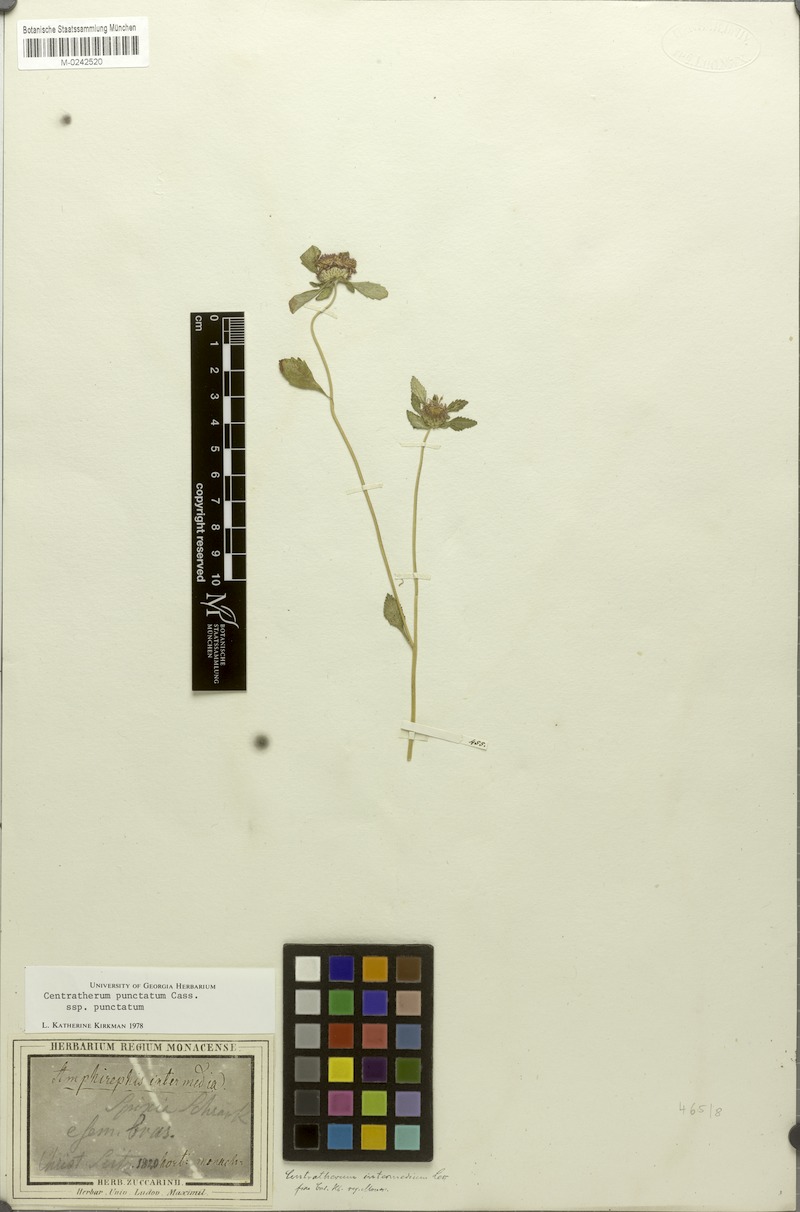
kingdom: Plantae
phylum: Tracheophyta
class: Magnoliopsida
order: Asterales
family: Asteraceae
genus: Centratherum
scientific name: Centratherum punctatum
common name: Larkdaisy
